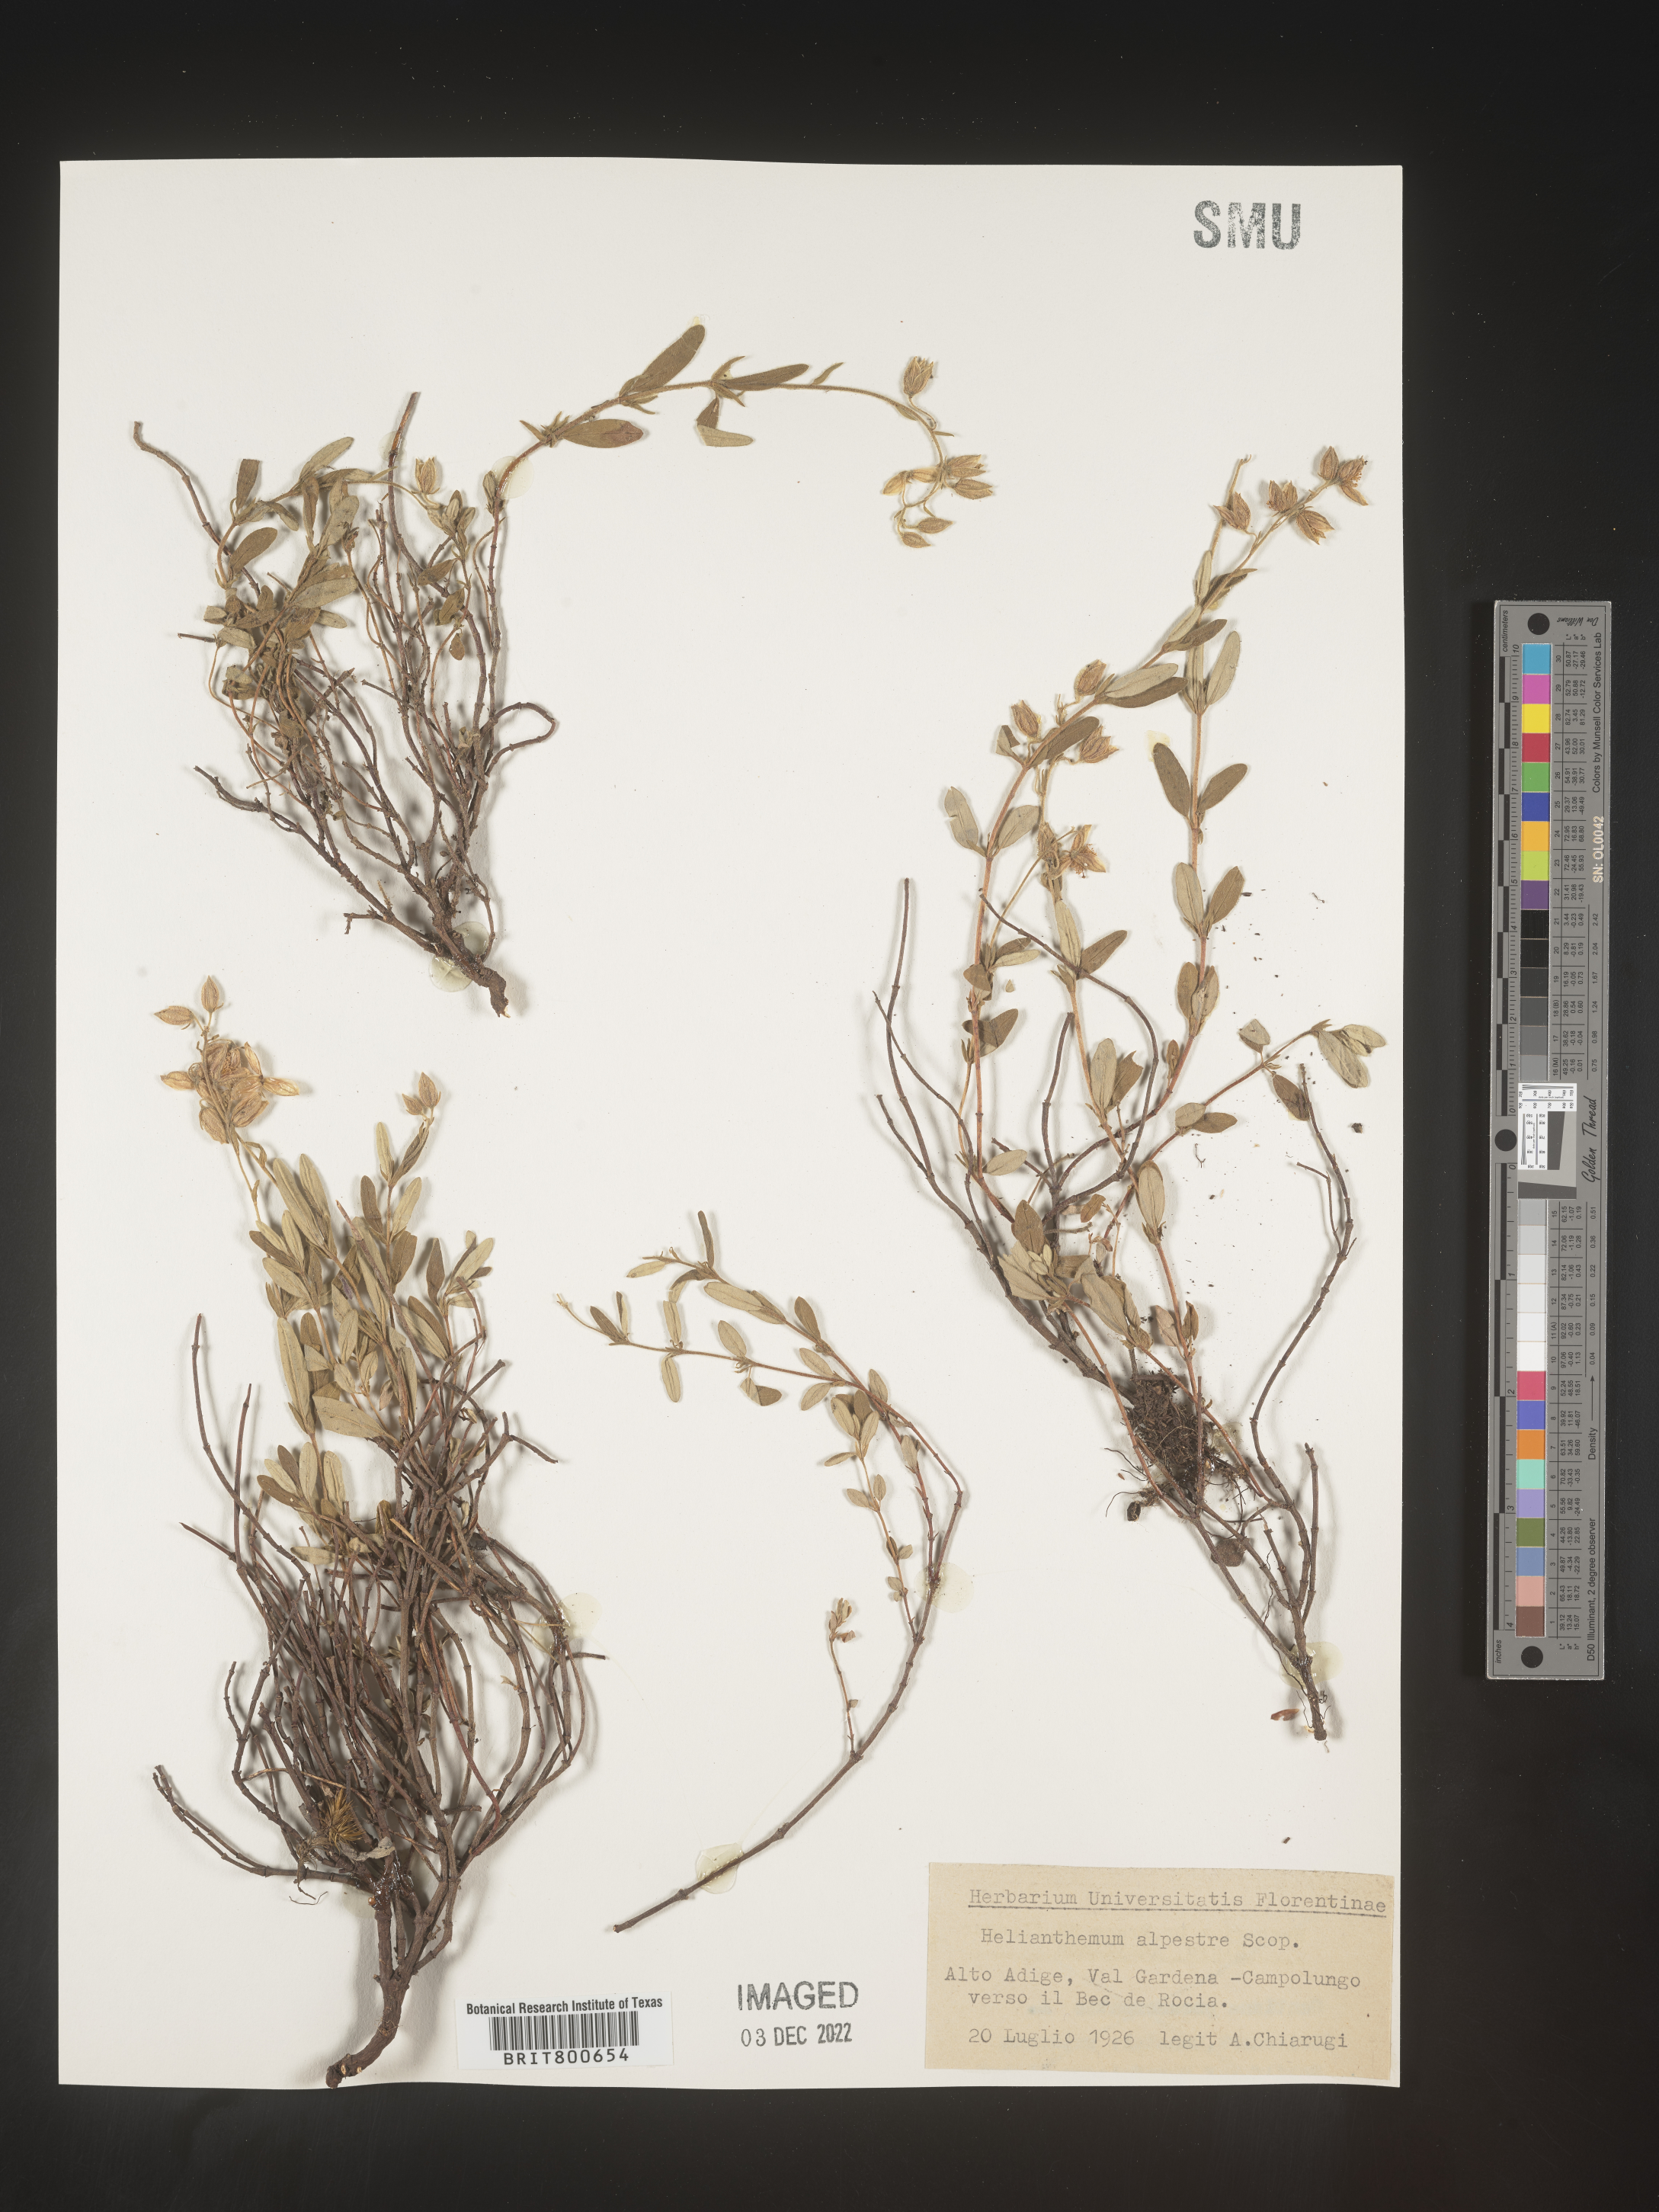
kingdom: Plantae
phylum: Tracheophyta
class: Magnoliopsida
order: Malvales
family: Cistaceae
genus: Helianthemum
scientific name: Helianthemum
